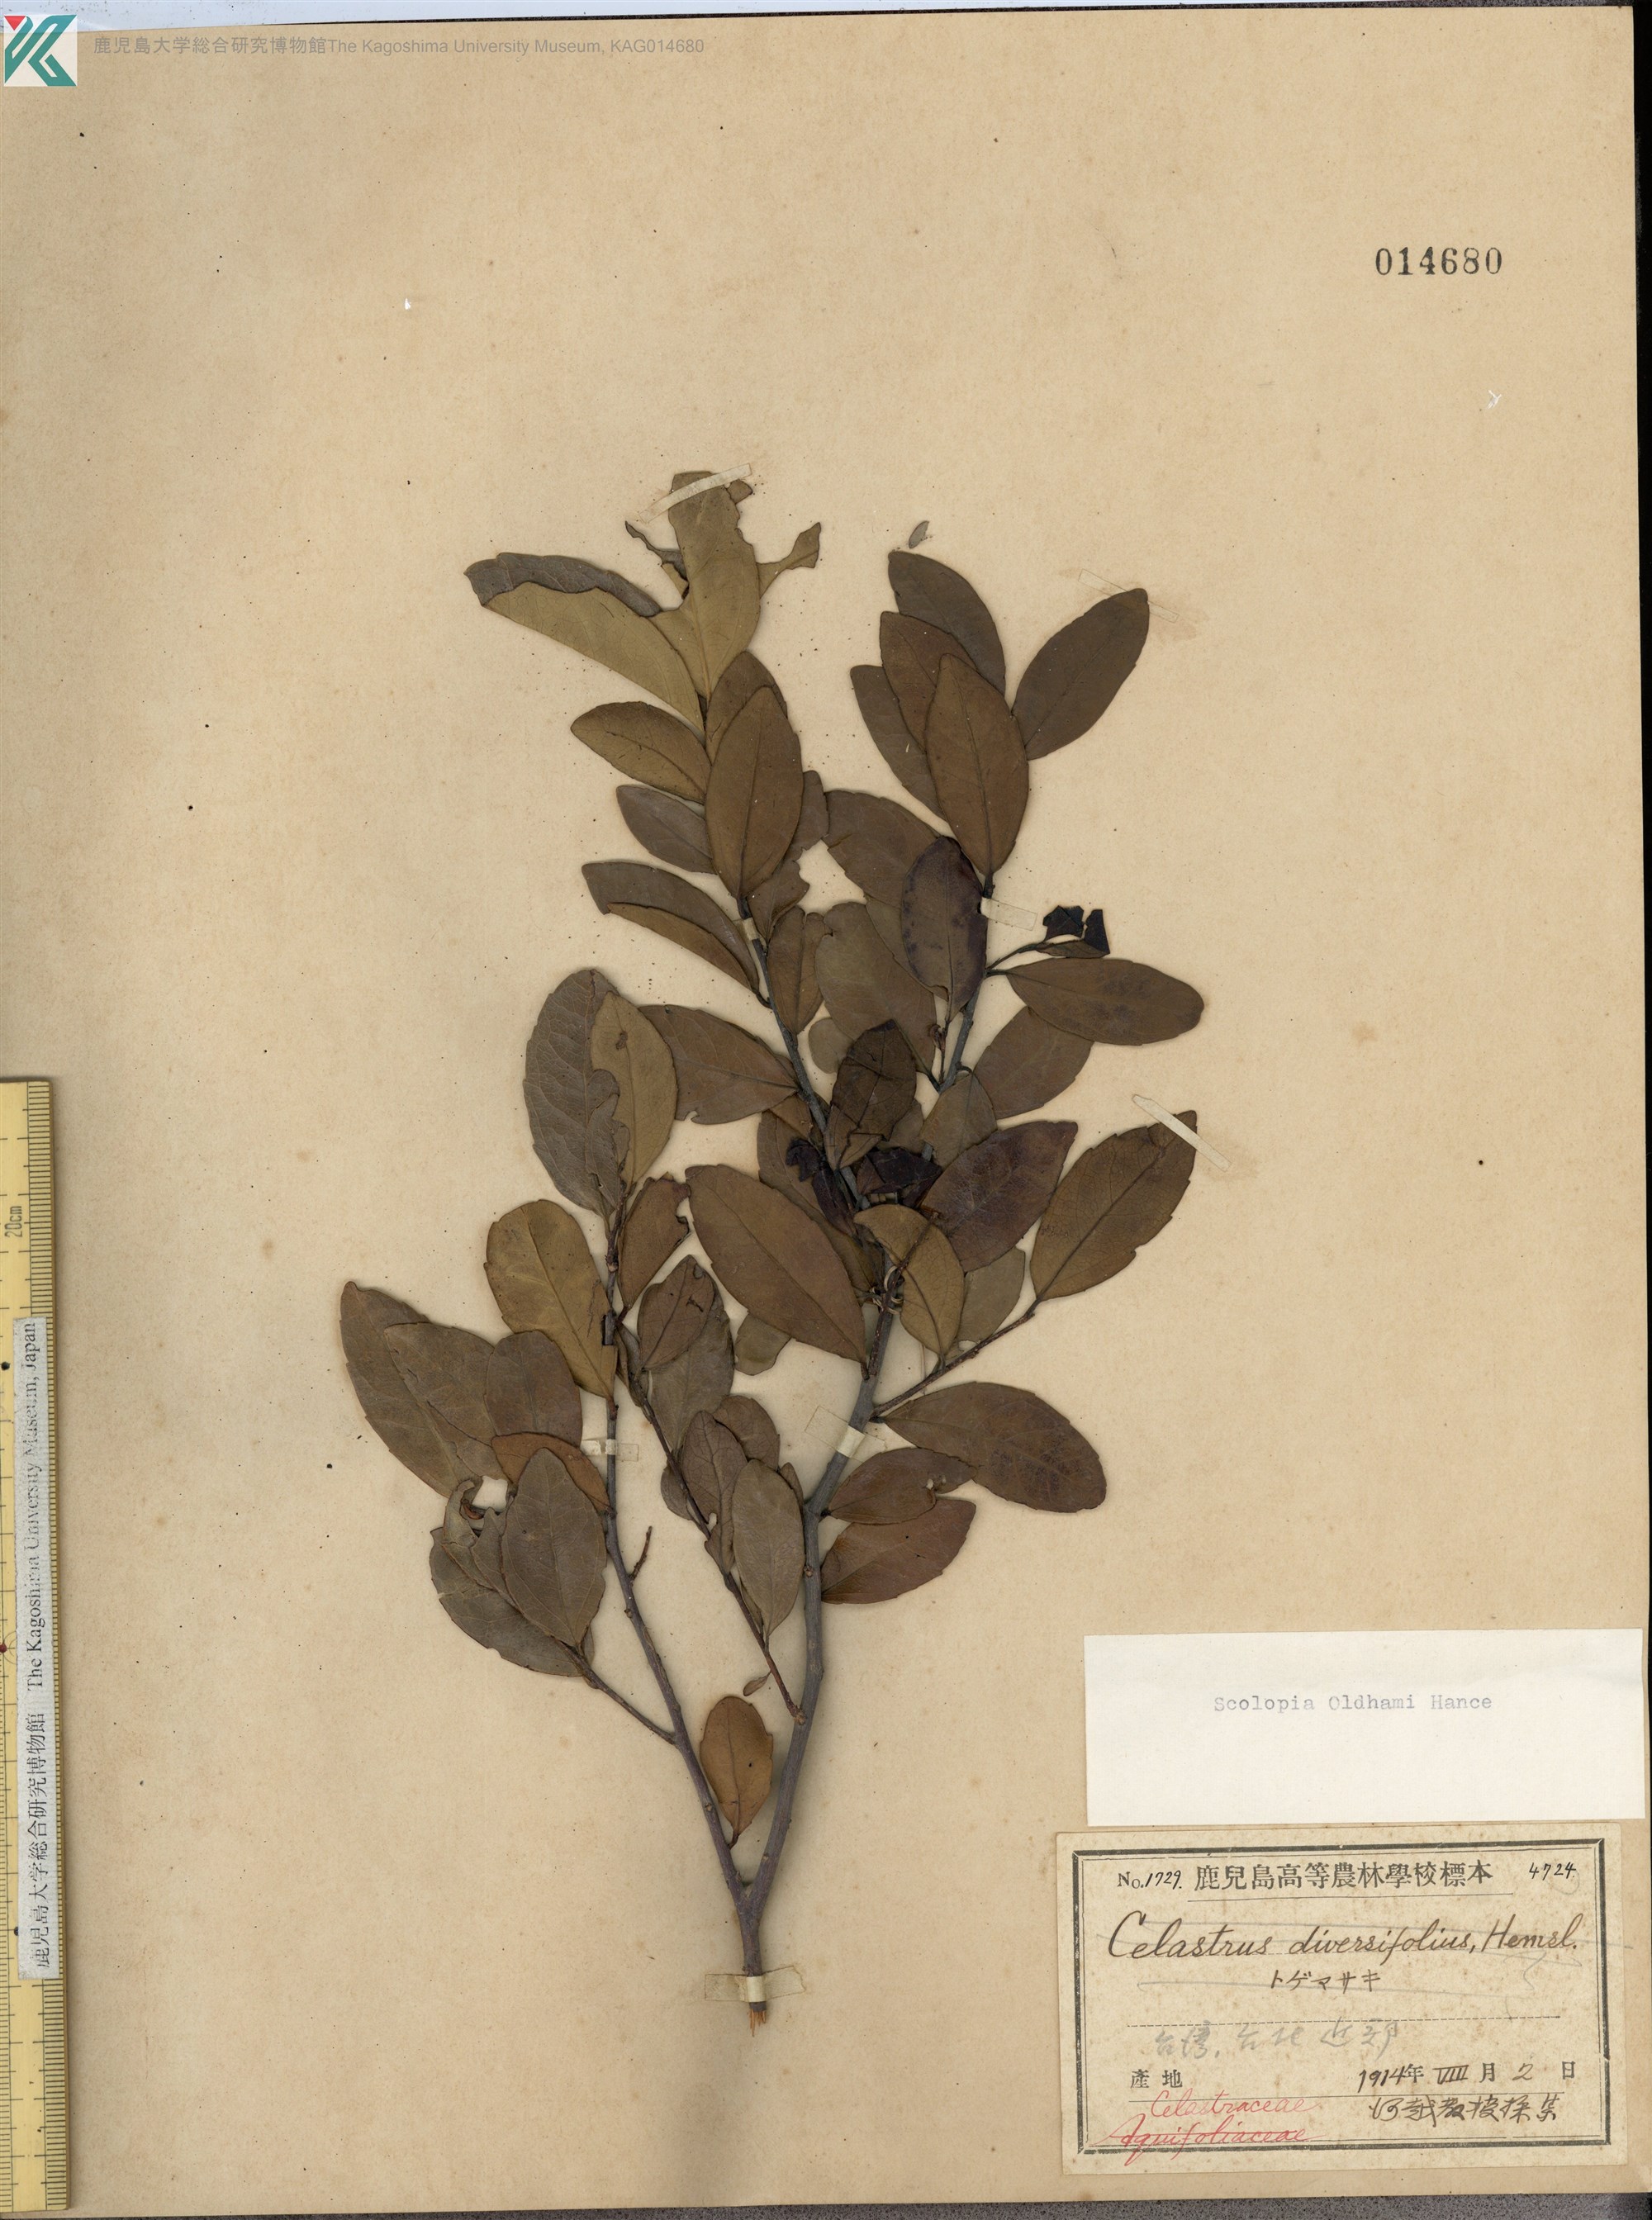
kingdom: Plantae
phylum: Tracheophyta
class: Magnoliopsida
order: Malpighiales
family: Salicaceae
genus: Scolopia
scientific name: Scolopia oldhamii
